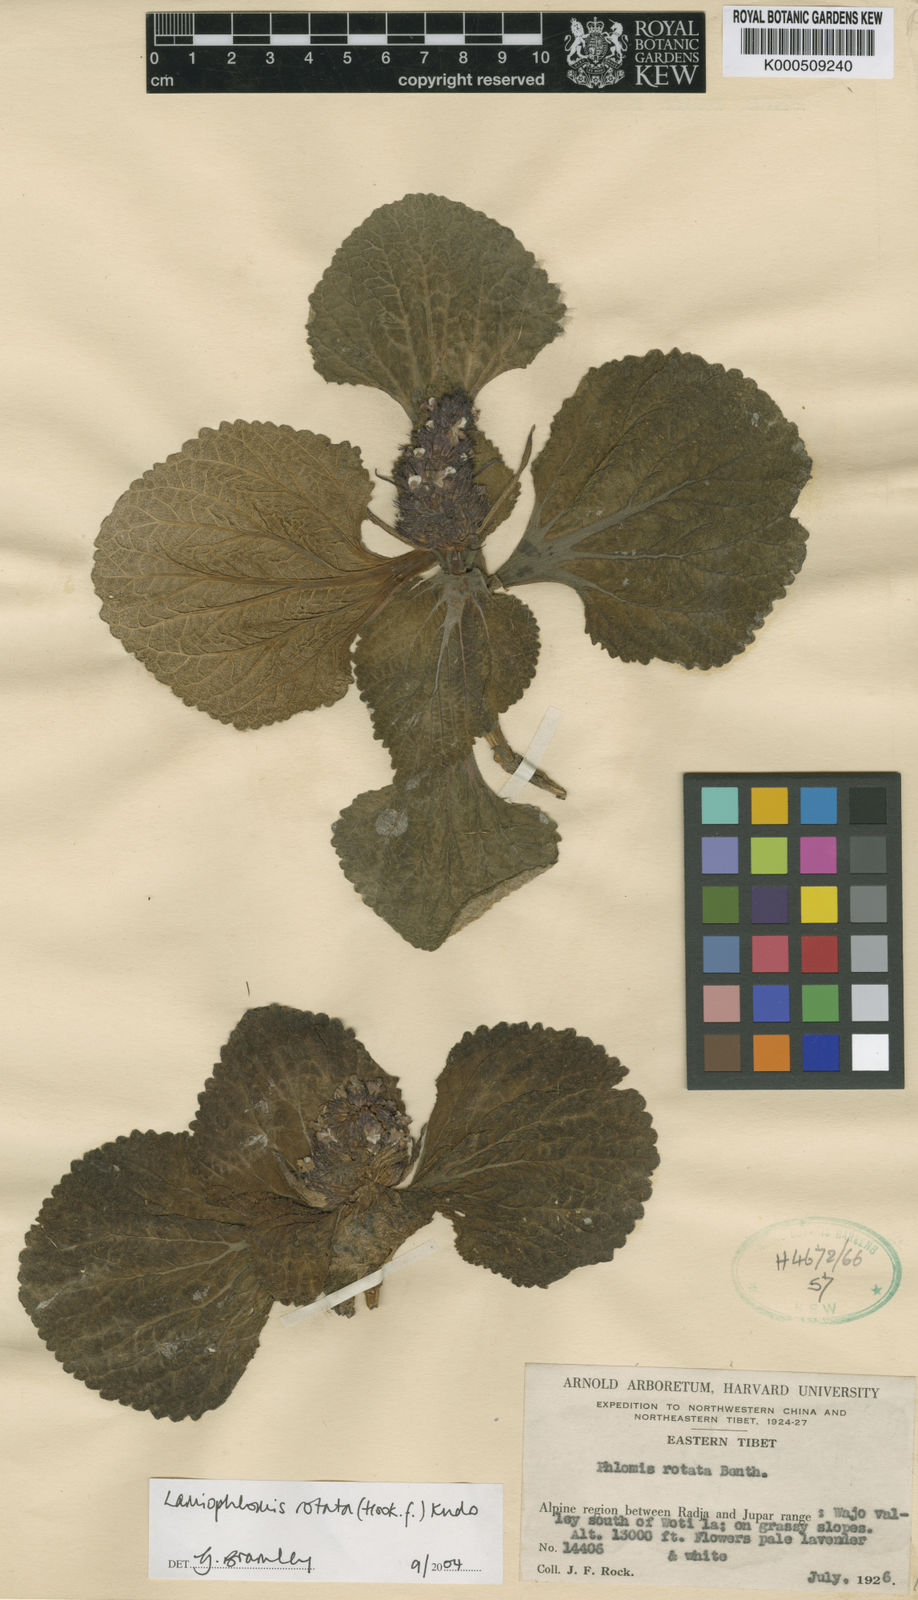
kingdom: Plantae
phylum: Tracheophyta
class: Magnoliopsida
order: Lamiales
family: Lamiaceae
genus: Phlomoides
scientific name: Phlomoides
